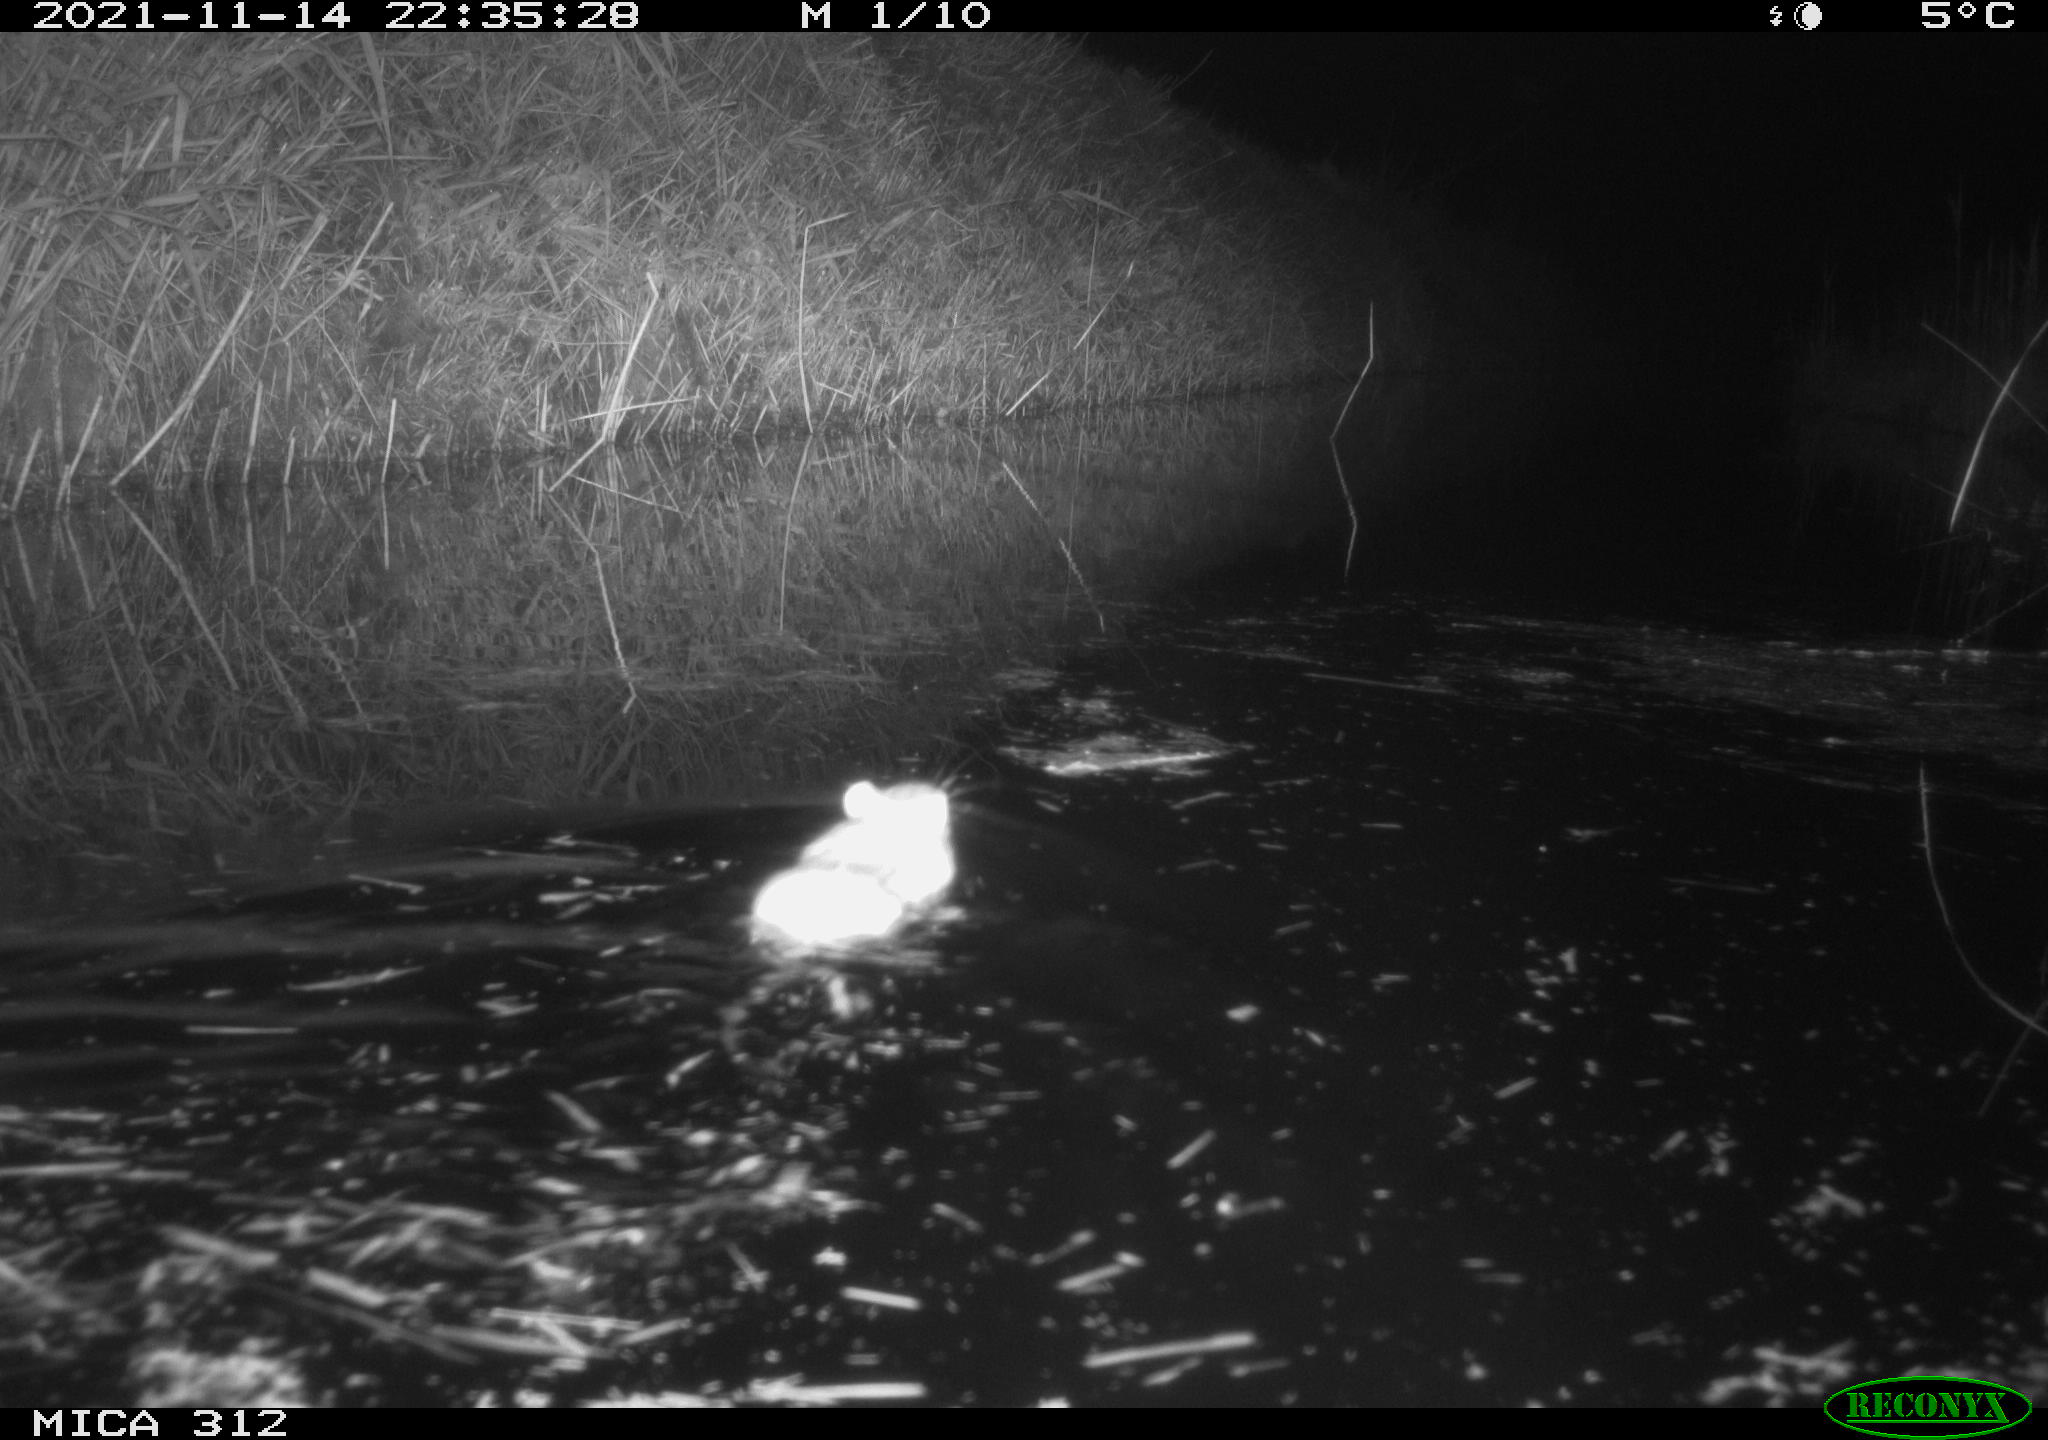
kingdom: Animalia
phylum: Chordata
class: Mammalia
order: Rodentia
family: Muridae
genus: Rattus
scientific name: Rattus norvegicus
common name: Brown rat
